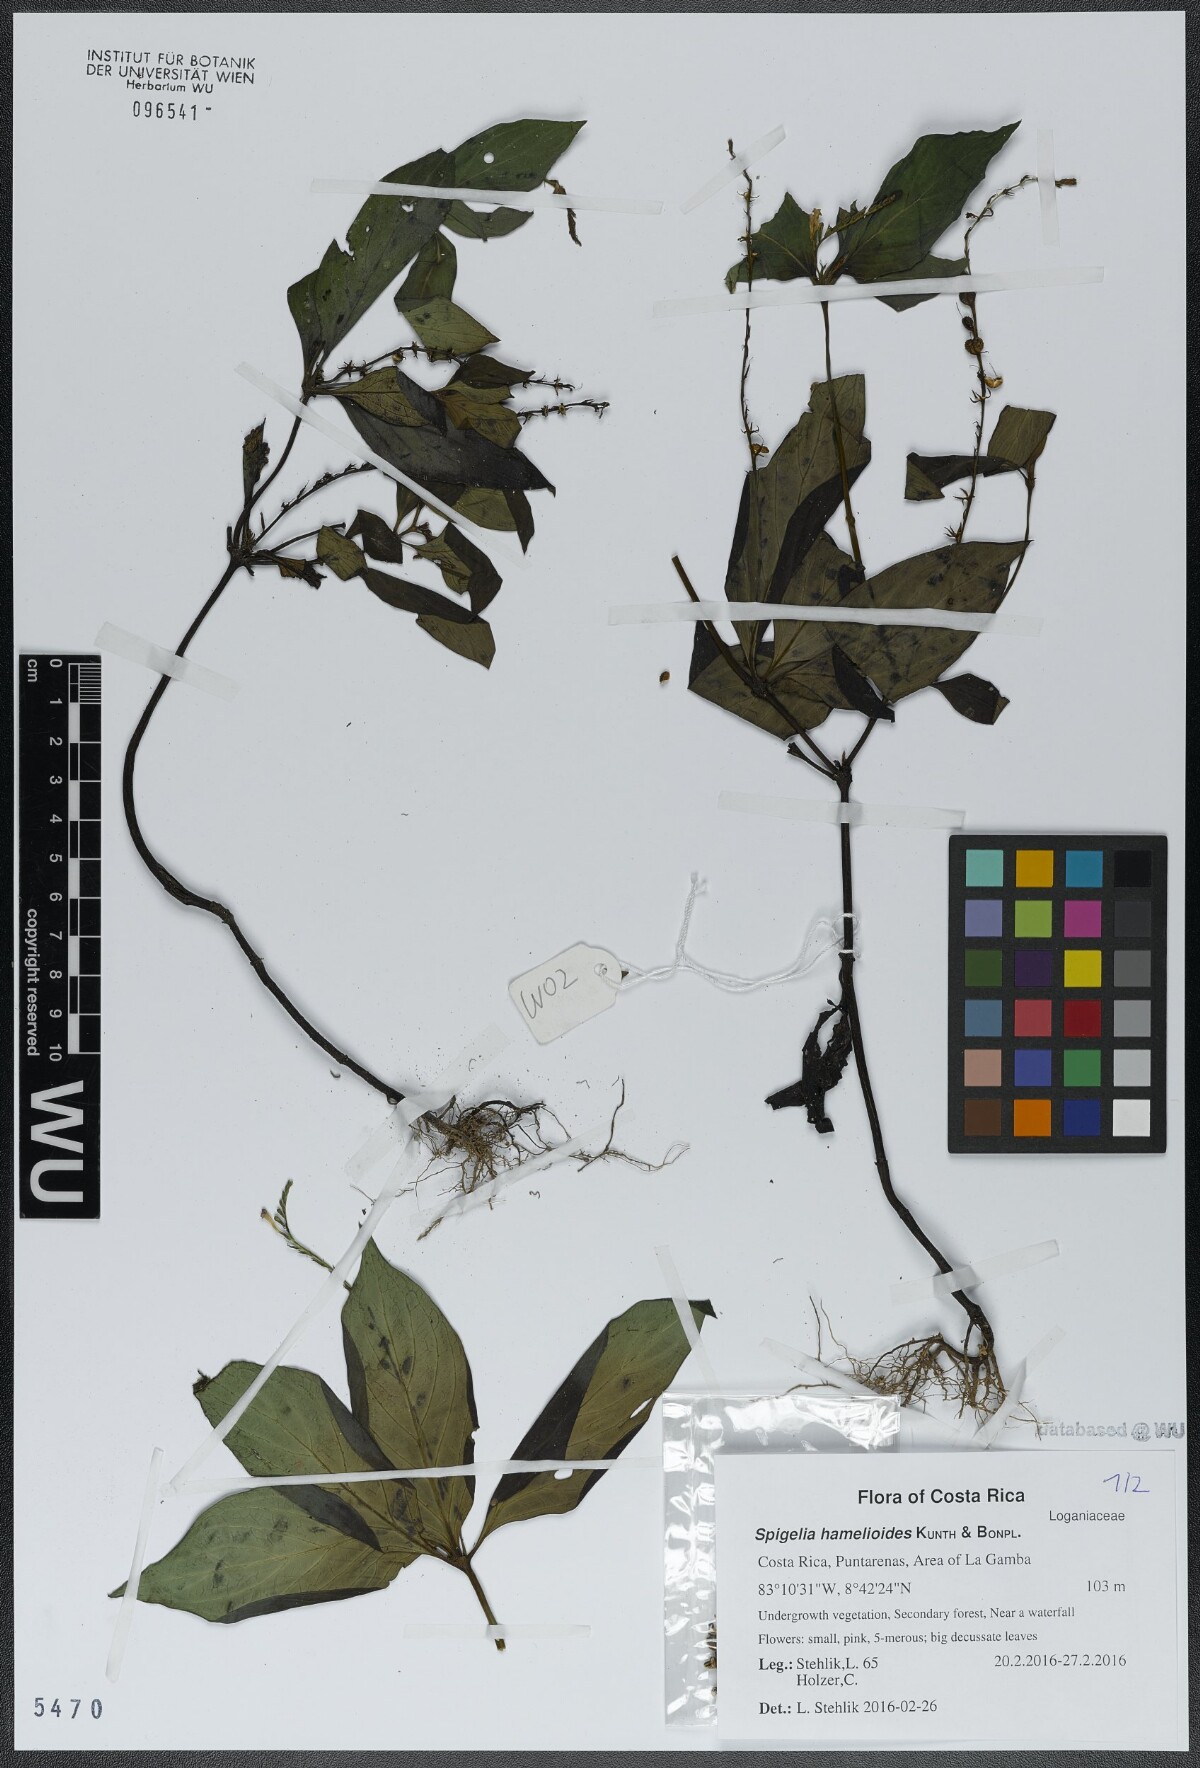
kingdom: Plantae
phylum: Tracheophyta
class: Magnoliopsida
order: Gentianales
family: Loganiaceae
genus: Spigelia
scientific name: Spigelia hamellioides
